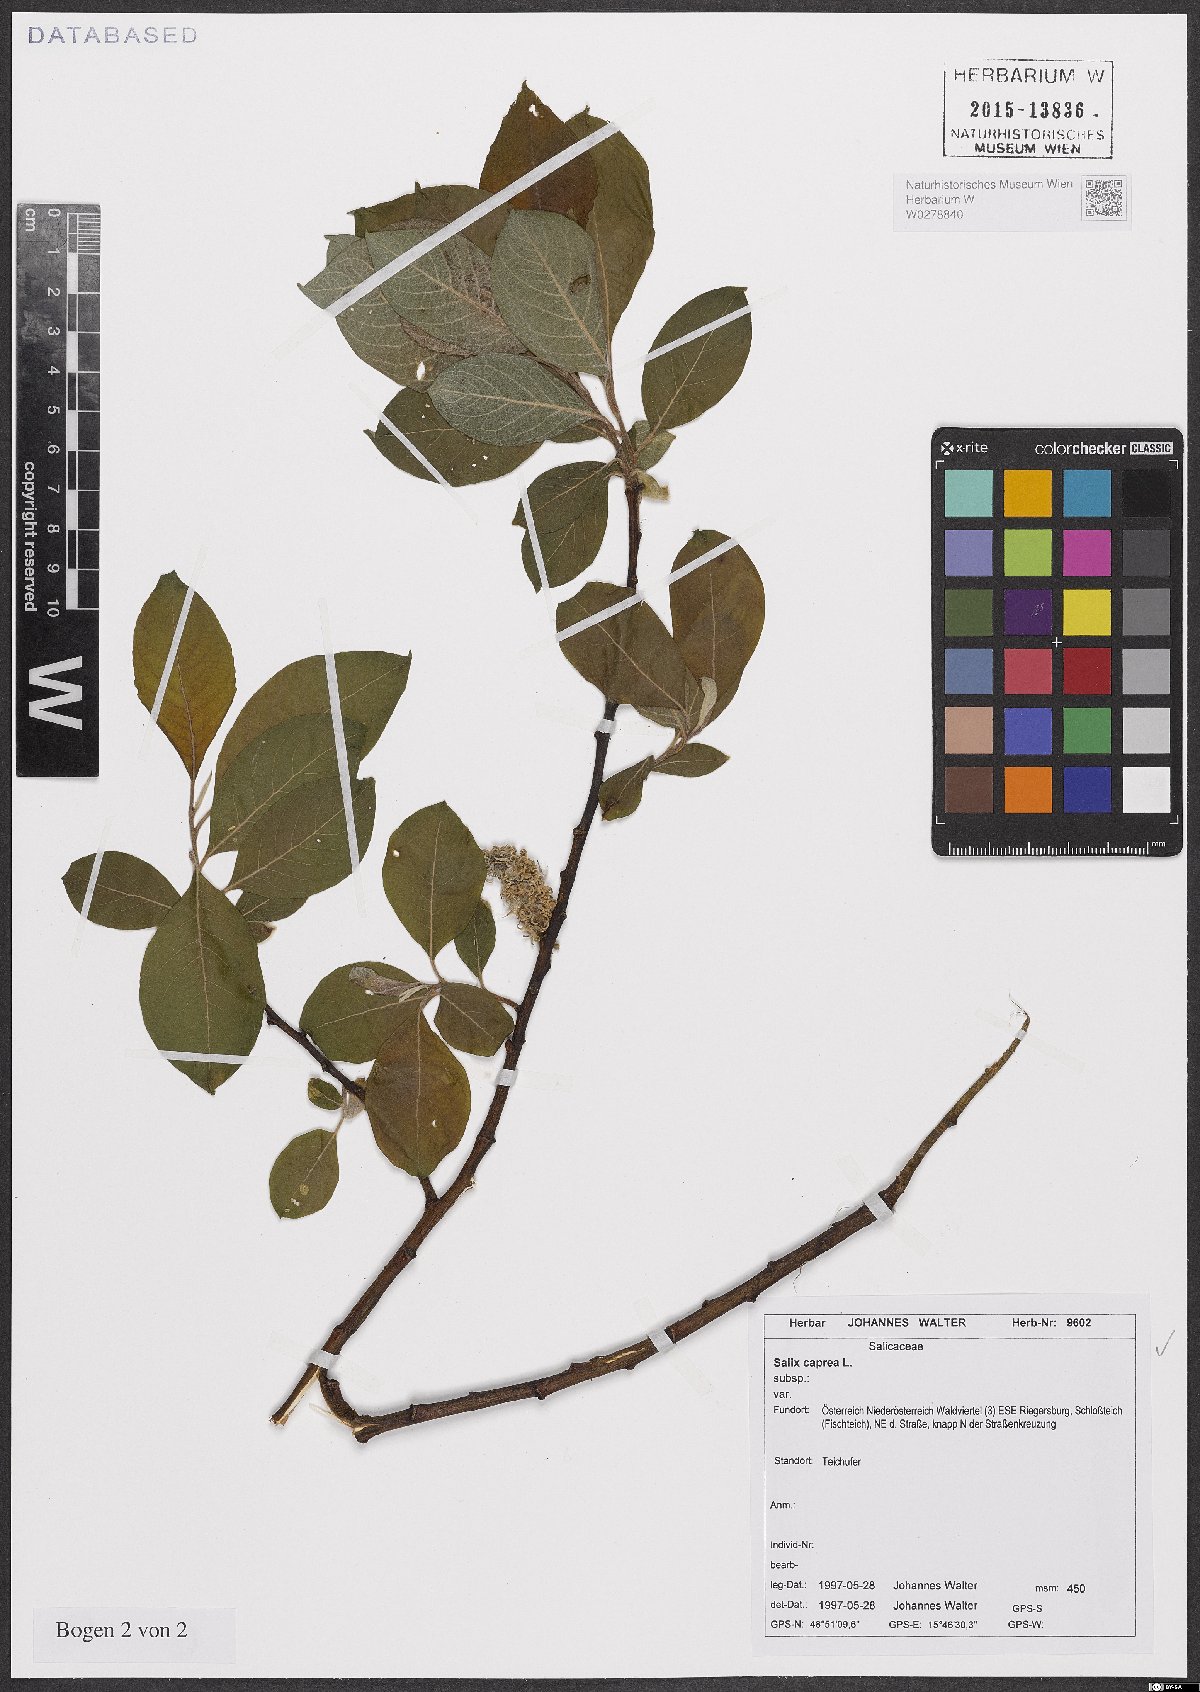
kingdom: Plantae
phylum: Tracheophyta
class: Magnoliopsida
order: Malpighiales
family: Salicaceae
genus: Salix
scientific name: Salix caprea
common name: Goat willow
